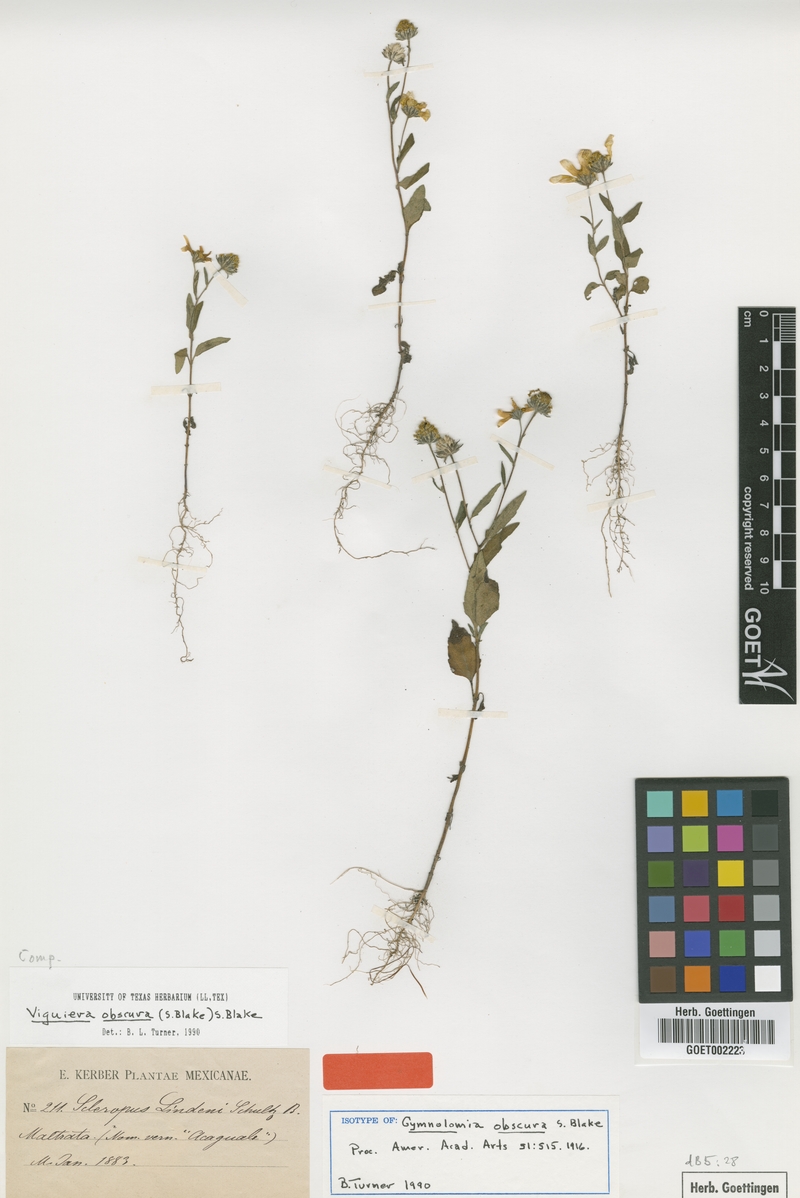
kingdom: Plantae
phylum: Tracheophyta
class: Magnoliopsida
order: Asterales
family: Asteraceae
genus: Heliomeris
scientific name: Heliomeris obscura
